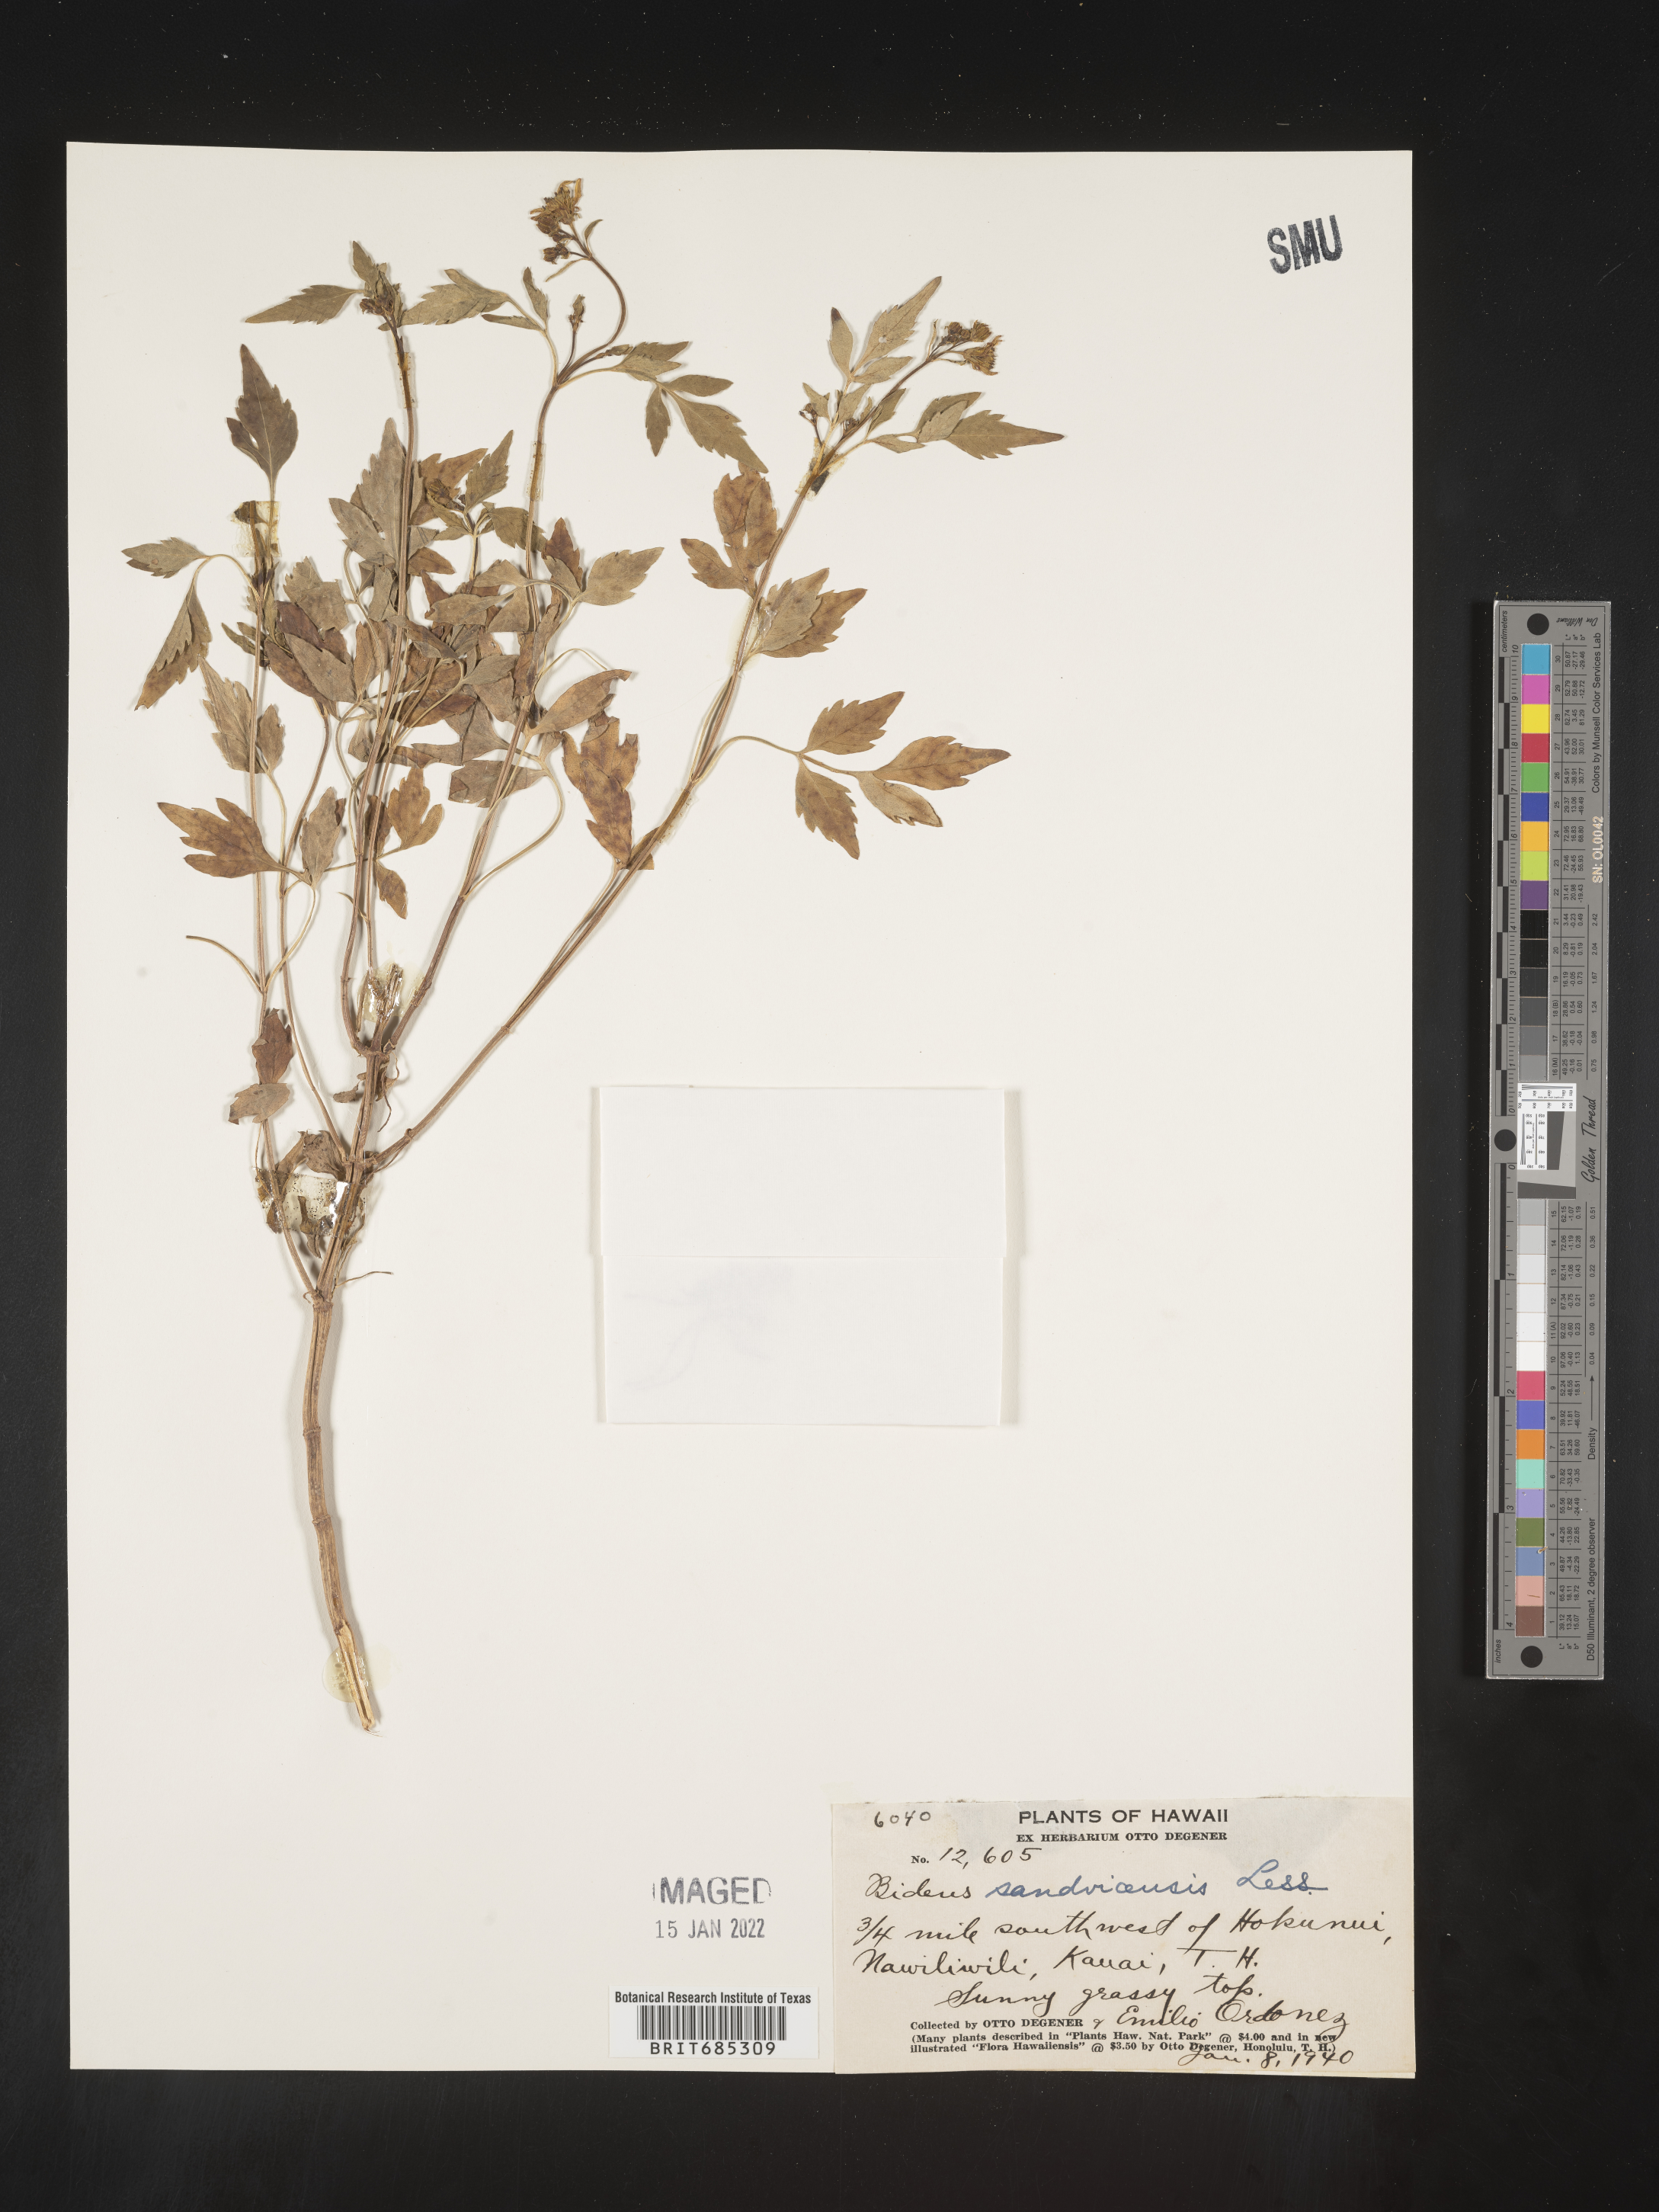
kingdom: Plantae
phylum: Tracheophyta
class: Magnoliopsida
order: Asterales
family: Asteraceae
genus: Bidens
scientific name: Bidens
